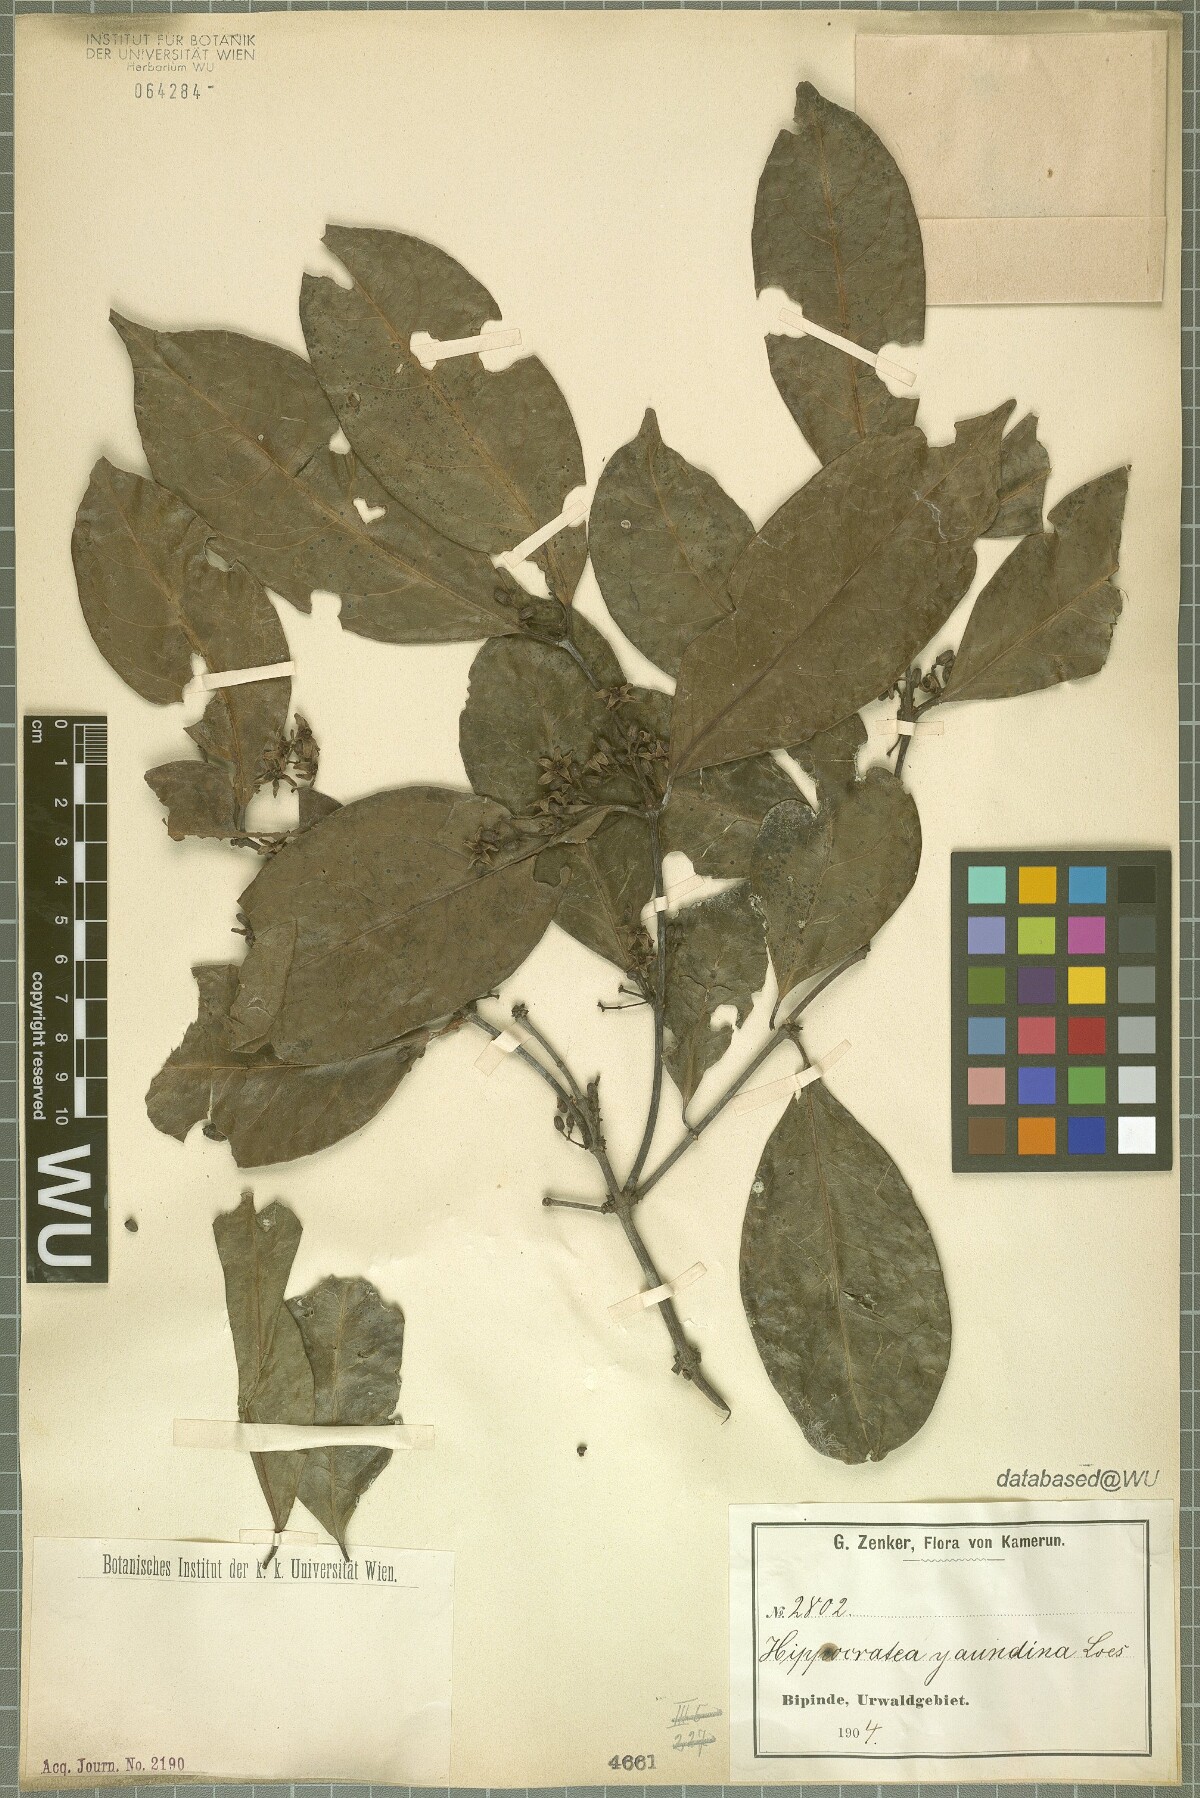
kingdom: Plantae
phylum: Tracheophyta
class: Magnoliopsida
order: Celastrales
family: Celastraceae
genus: Loeseneriella
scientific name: Loeseneriella yaundina
